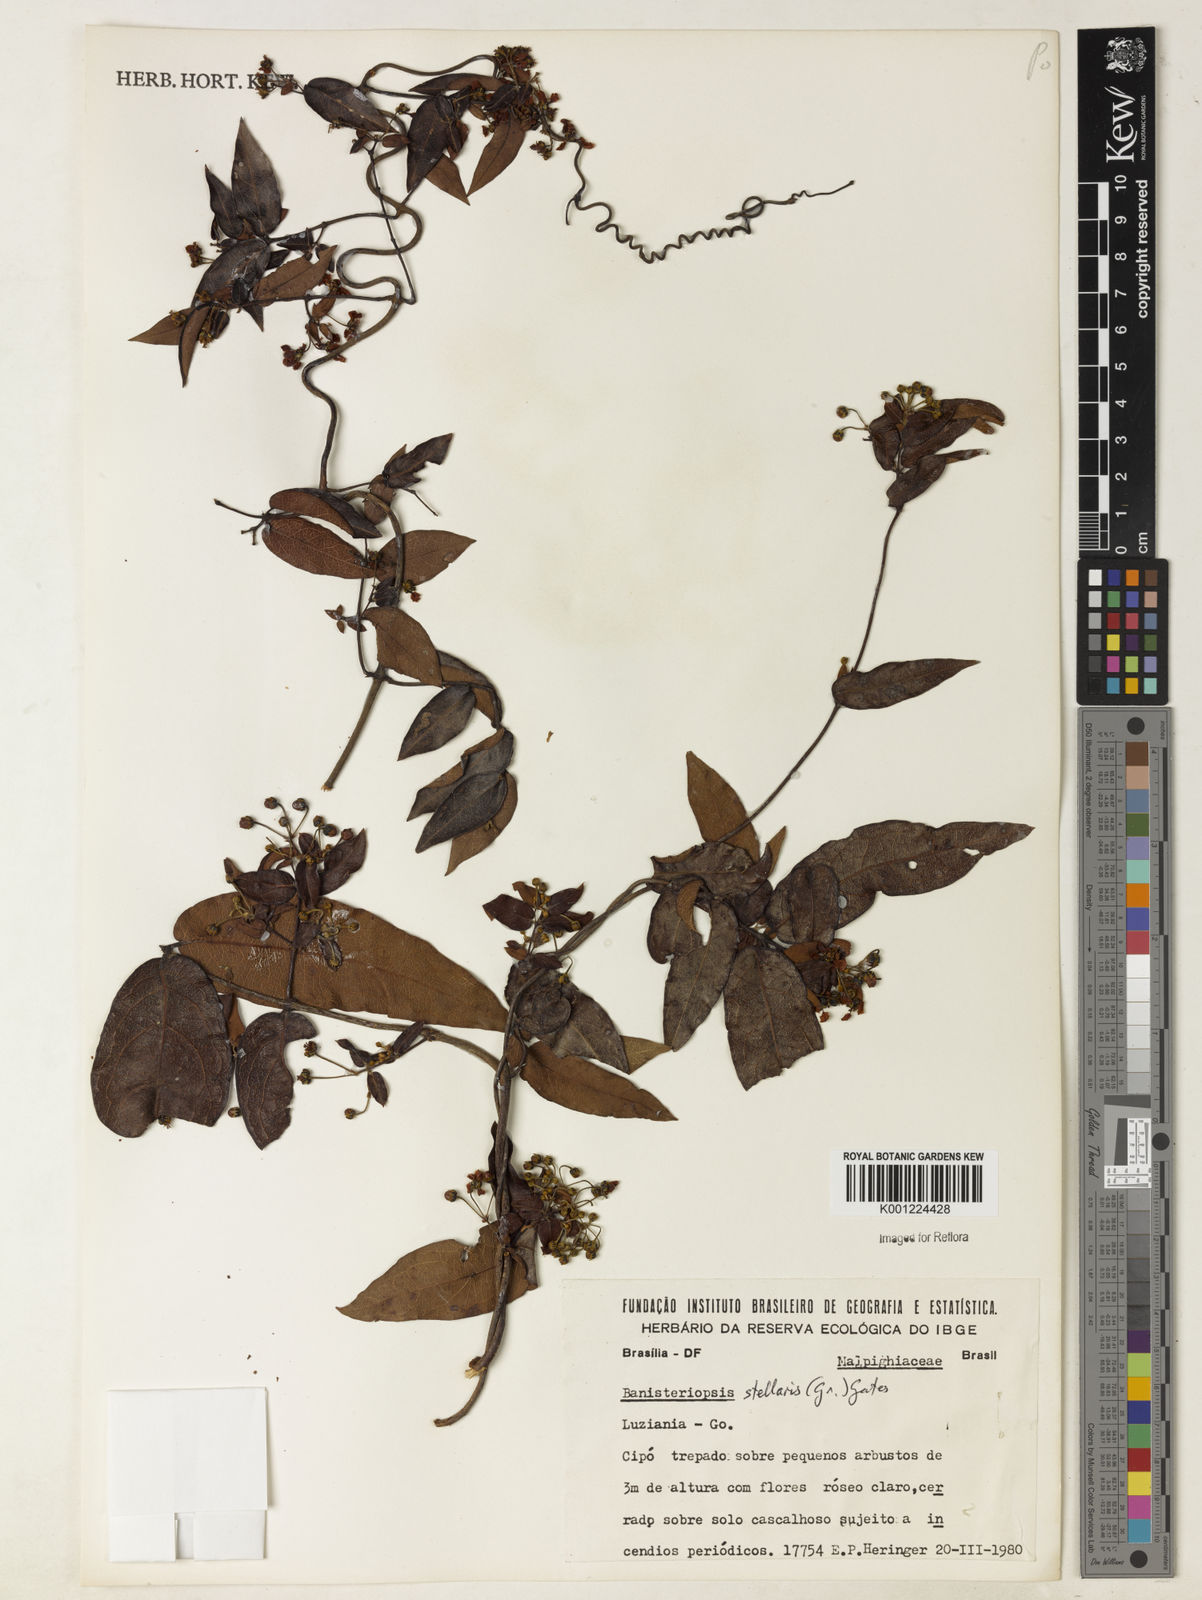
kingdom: Plantae
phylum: Tracheophyta
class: Magnoliopsida
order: Malpighiales
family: Malpighiaceae
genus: Banisteriopsis
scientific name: Banisteriopsis stellaris
